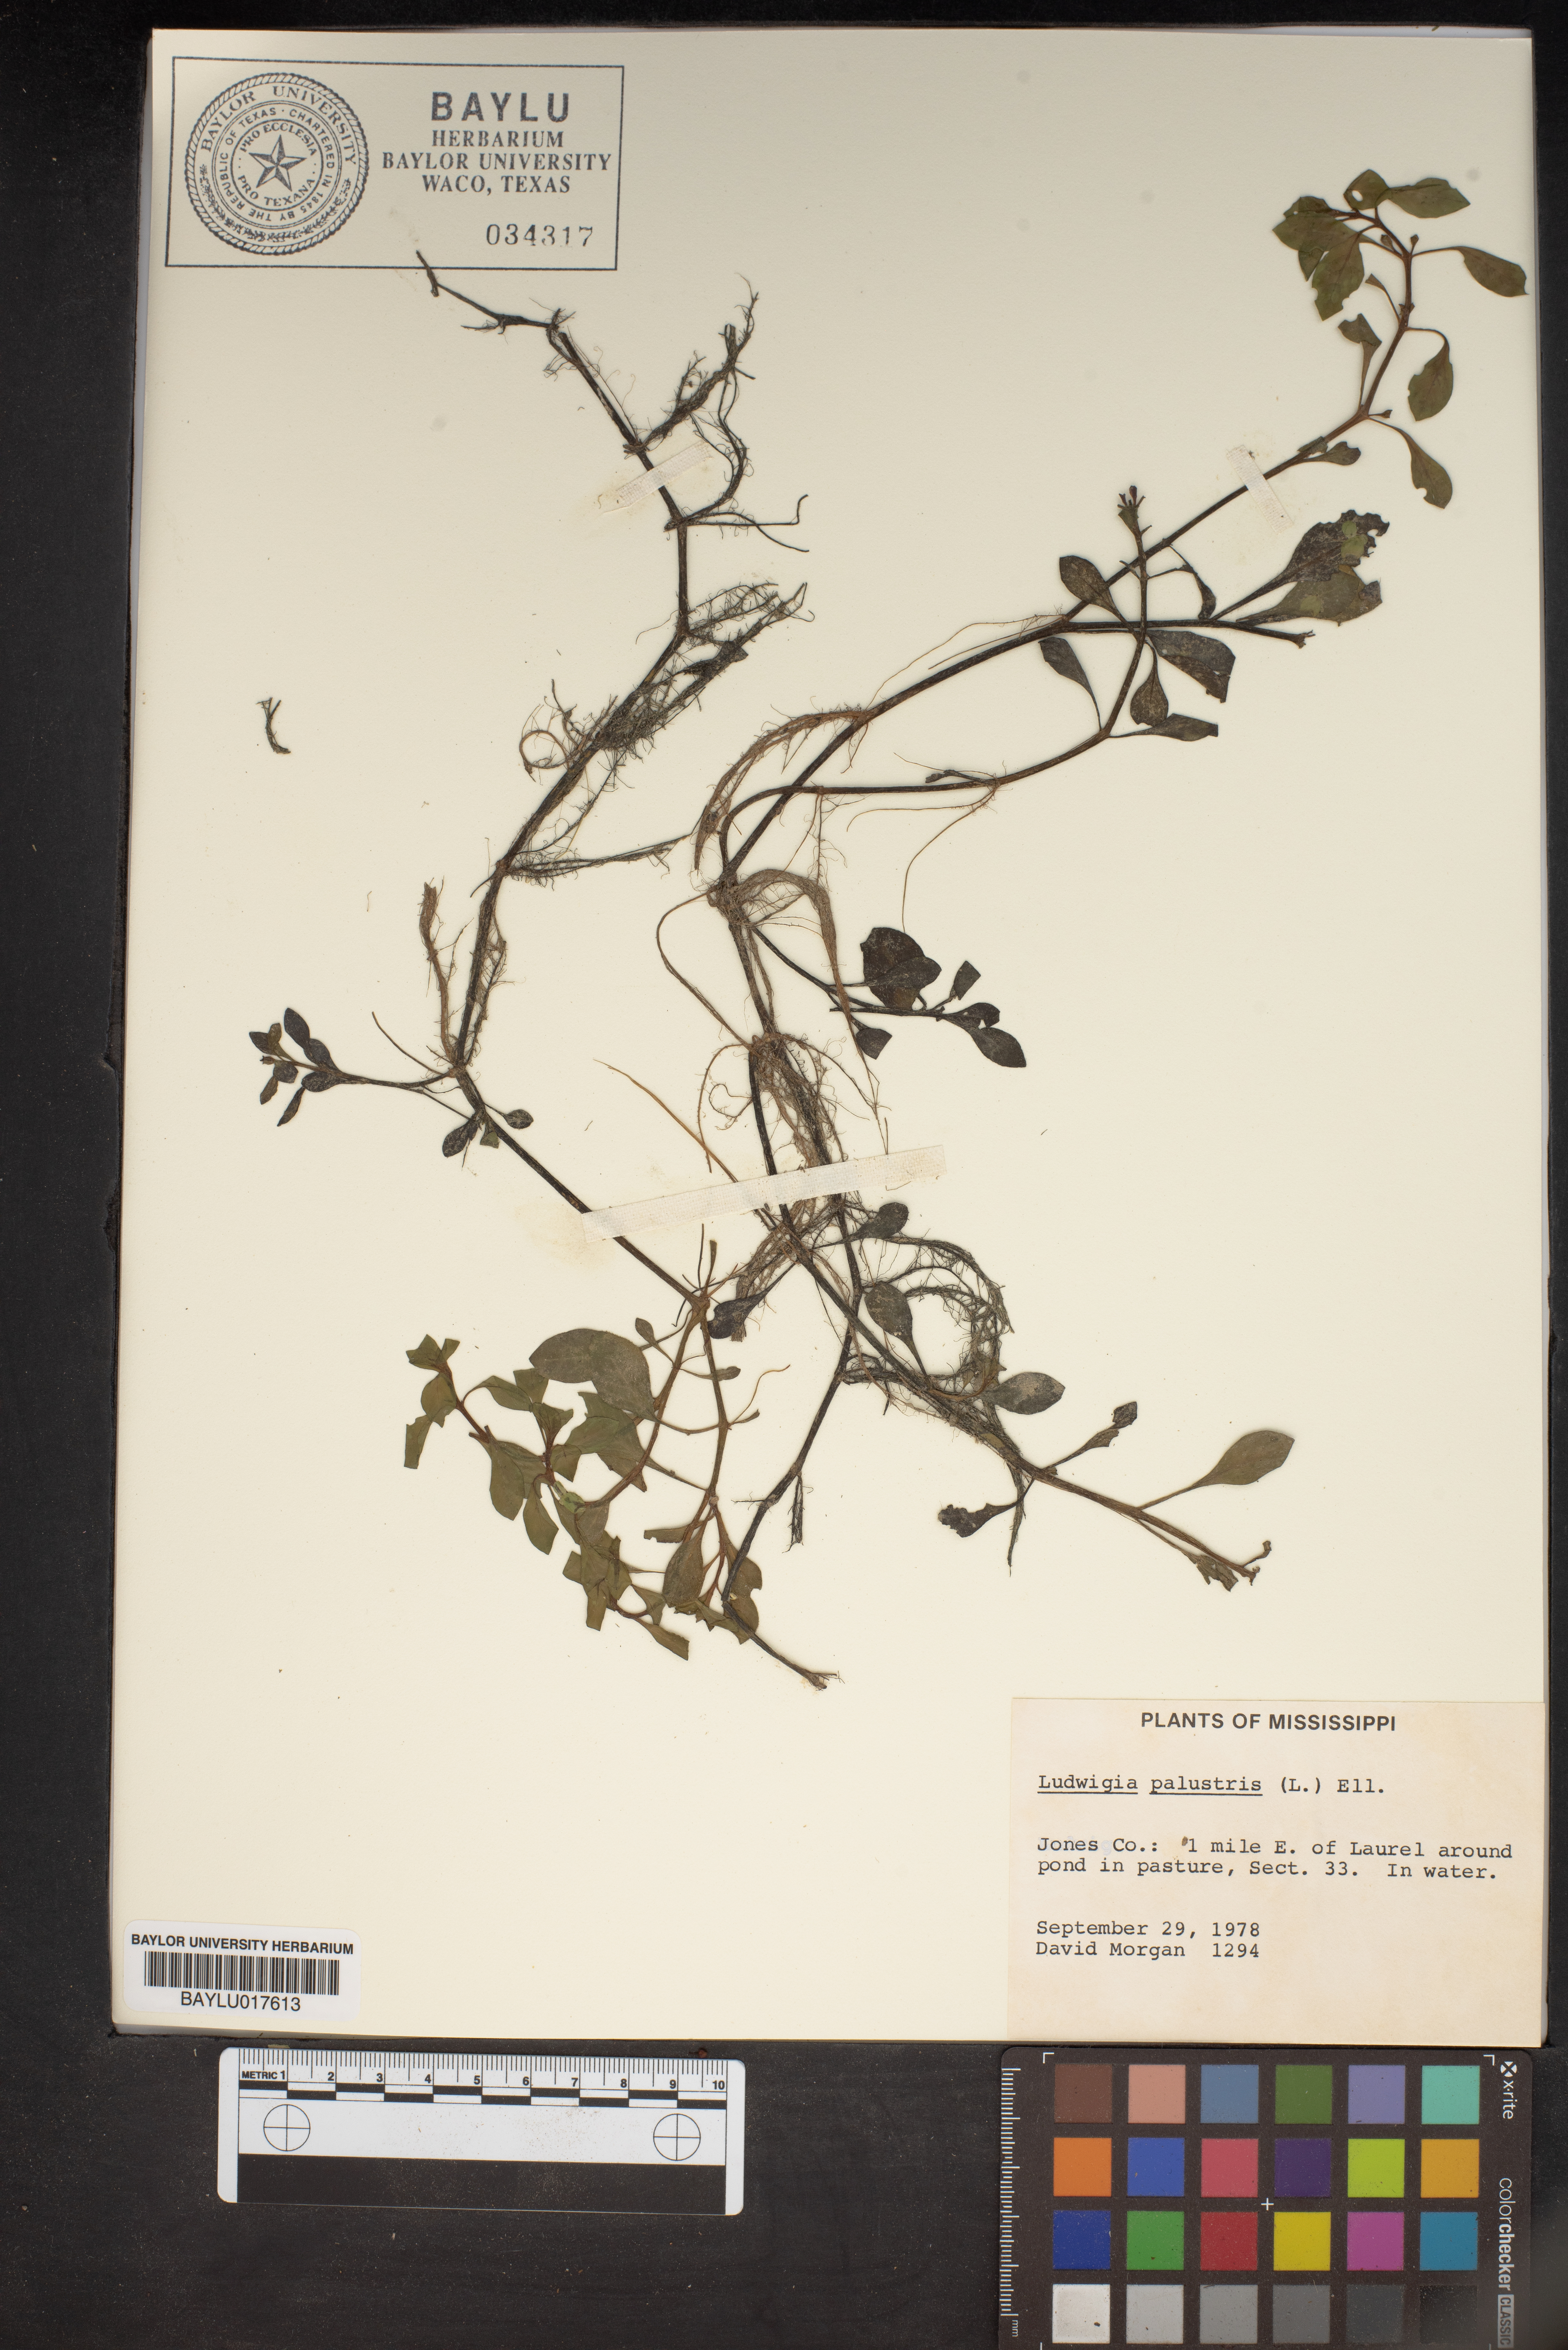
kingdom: Plantae
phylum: Tracheophyta
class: Magnoliopsida
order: Myrtales
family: Onagraceae
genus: Ludwigia
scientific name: Ludwigia palustris
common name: Hampshire-purslane
